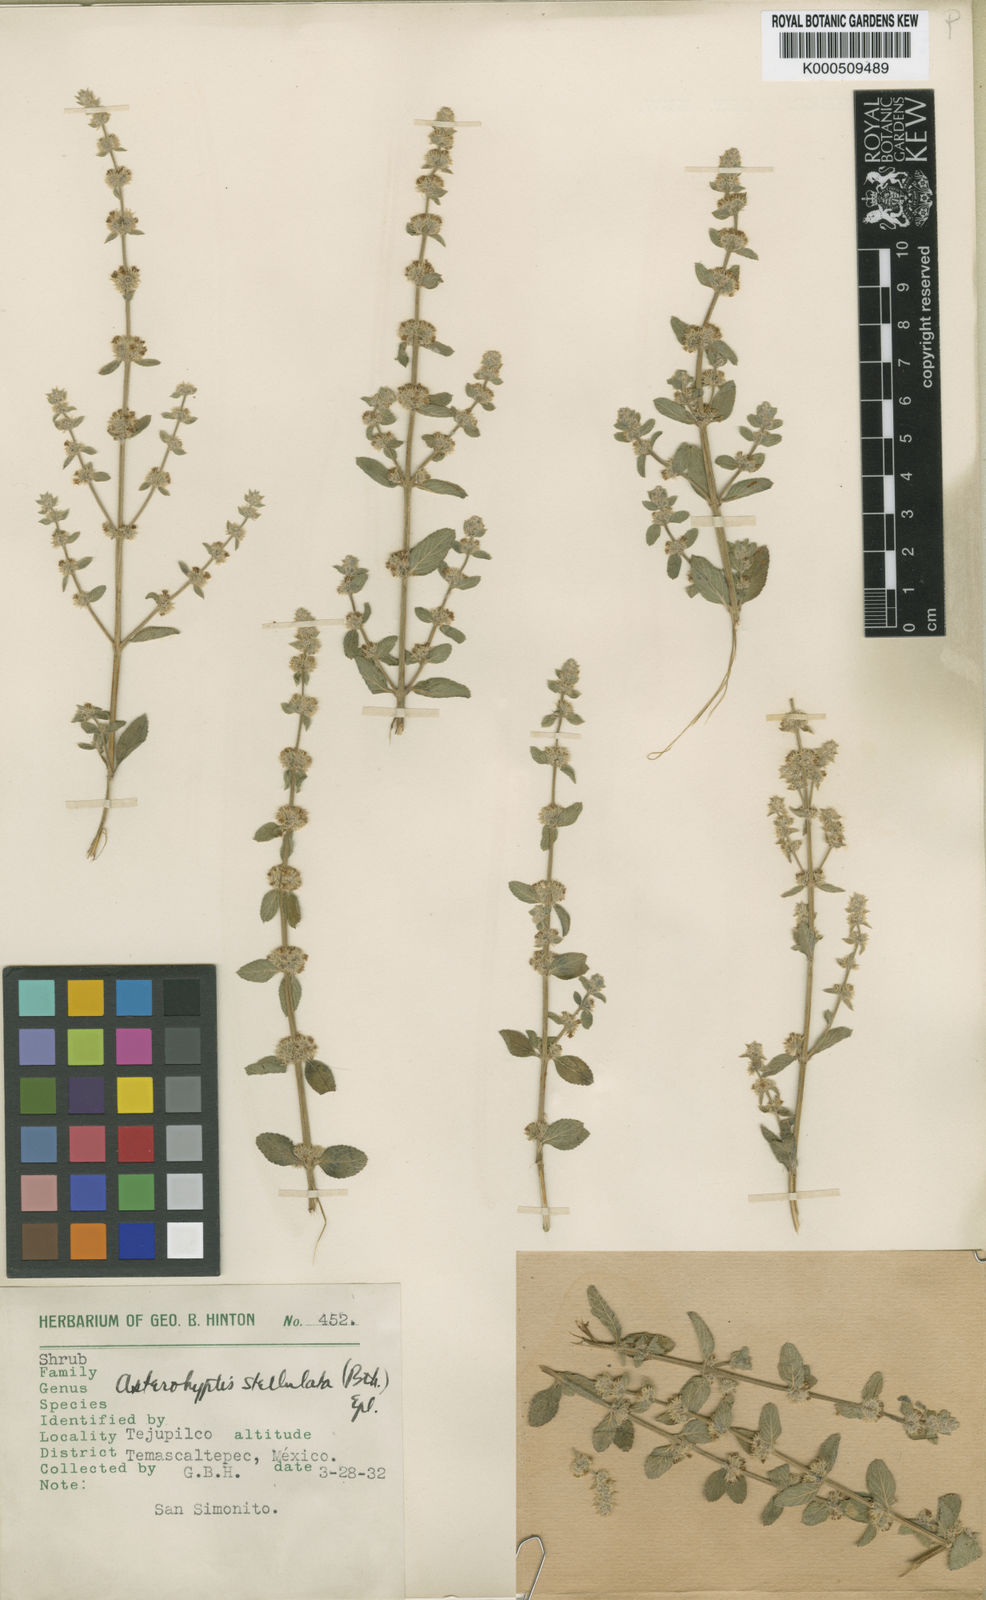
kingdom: Plantae
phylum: Tracheophyta
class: Magnoliopsida
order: Lamiales
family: Lamiaceae
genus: Asterohyptis
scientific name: Asterohyptis stellulata
